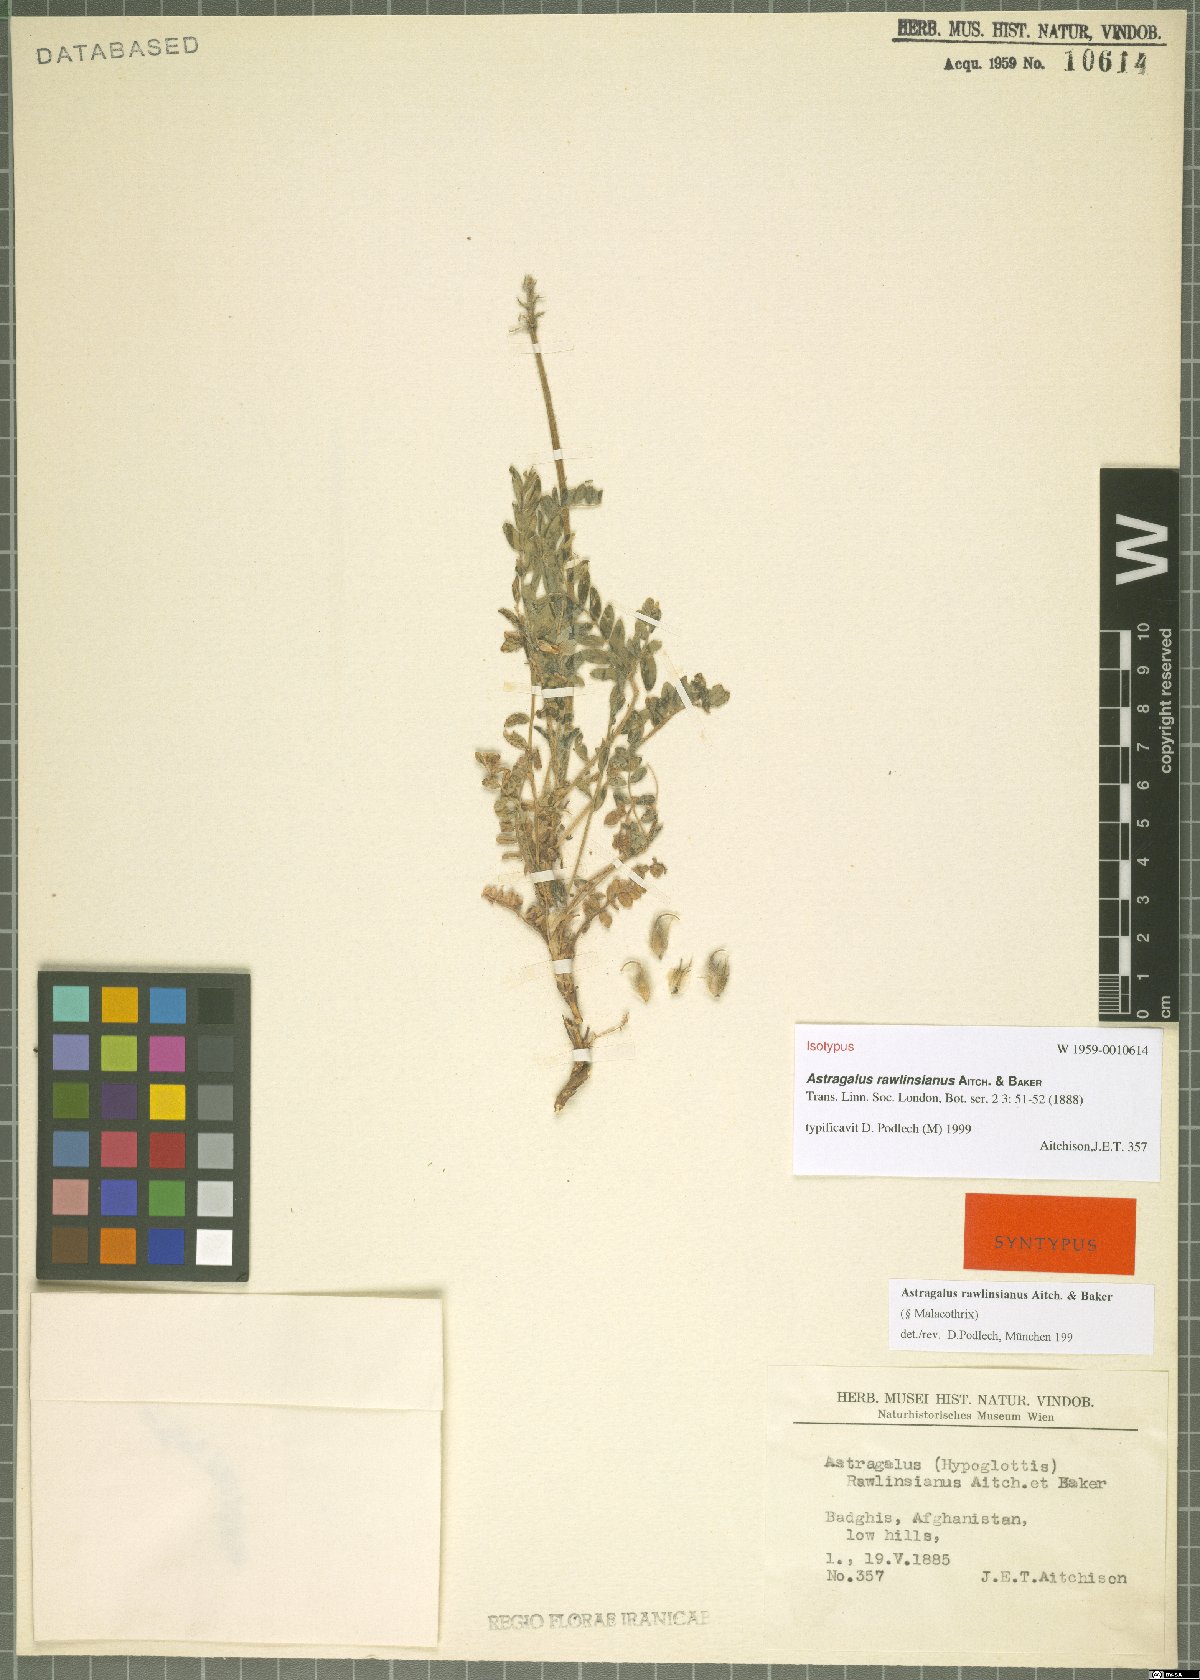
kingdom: Plantae
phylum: Tracheophyta
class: Magnoliopsida
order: Fabales
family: Fabaceae
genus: Astragalus
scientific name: Astragalus rawlinsianus
